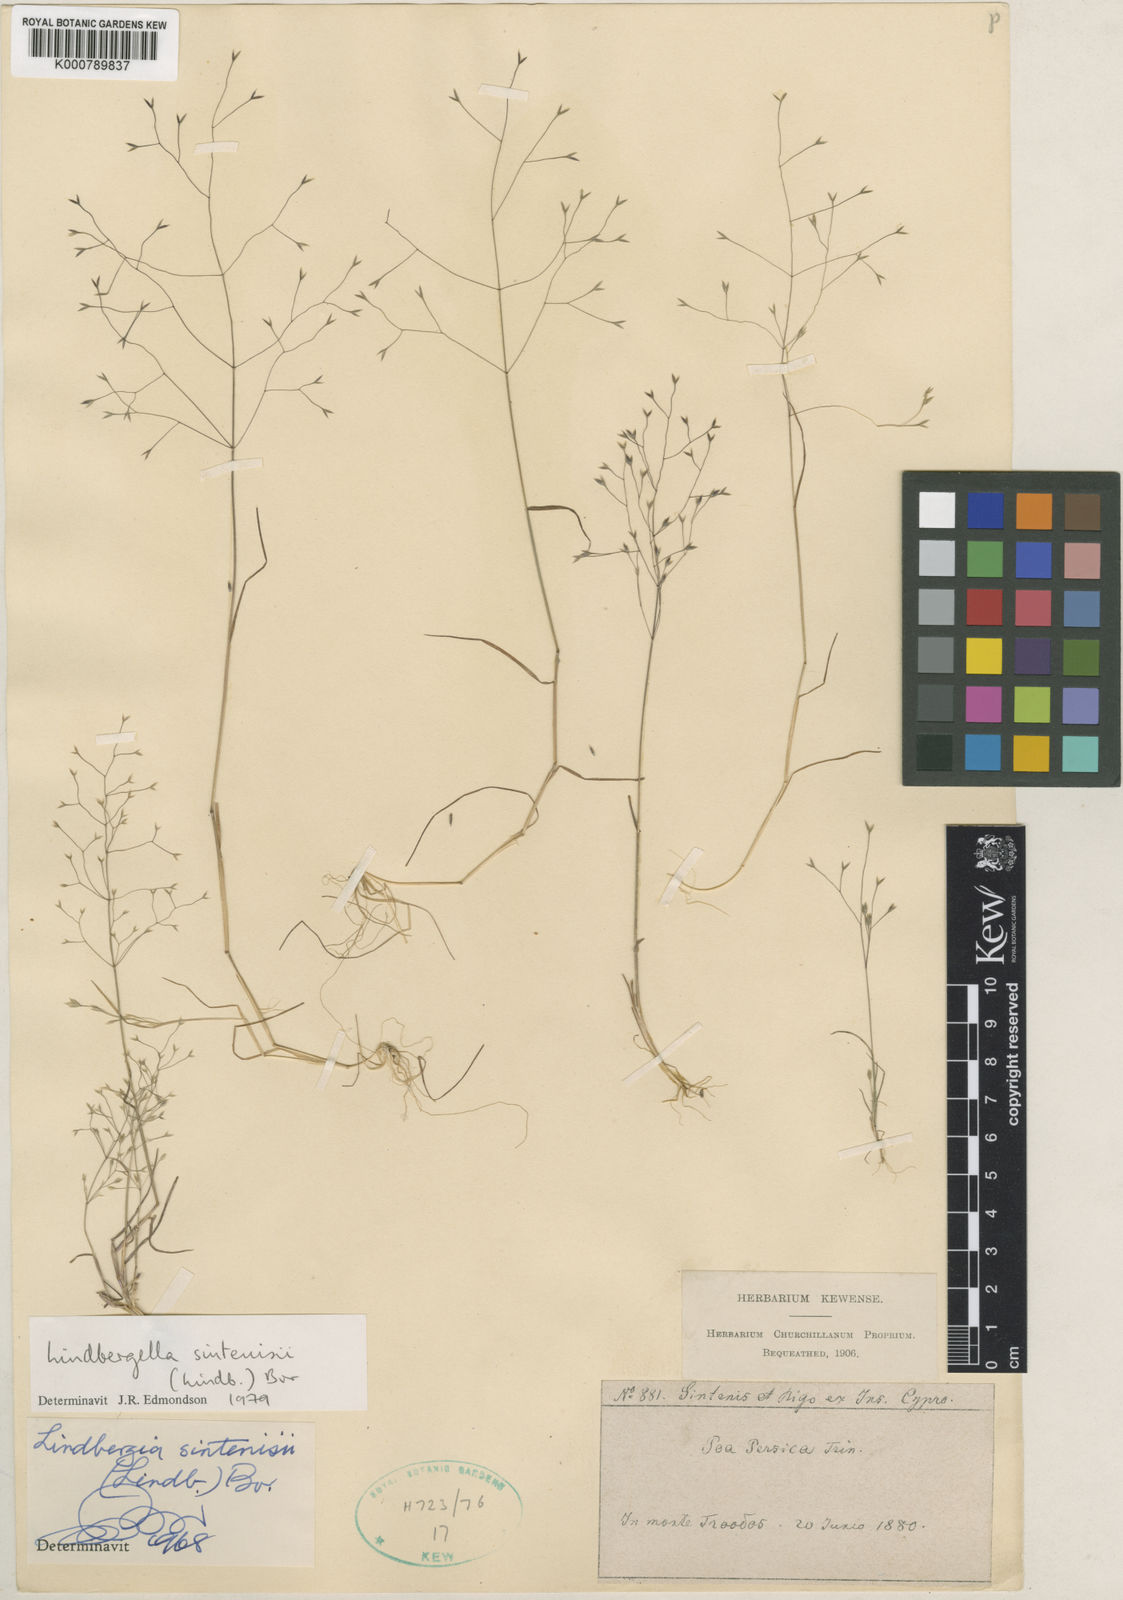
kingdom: Plantae
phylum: Tracheophyta
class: Liliopsida
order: Poales
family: Poaceae
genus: Poa
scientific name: Poa sintenisii
